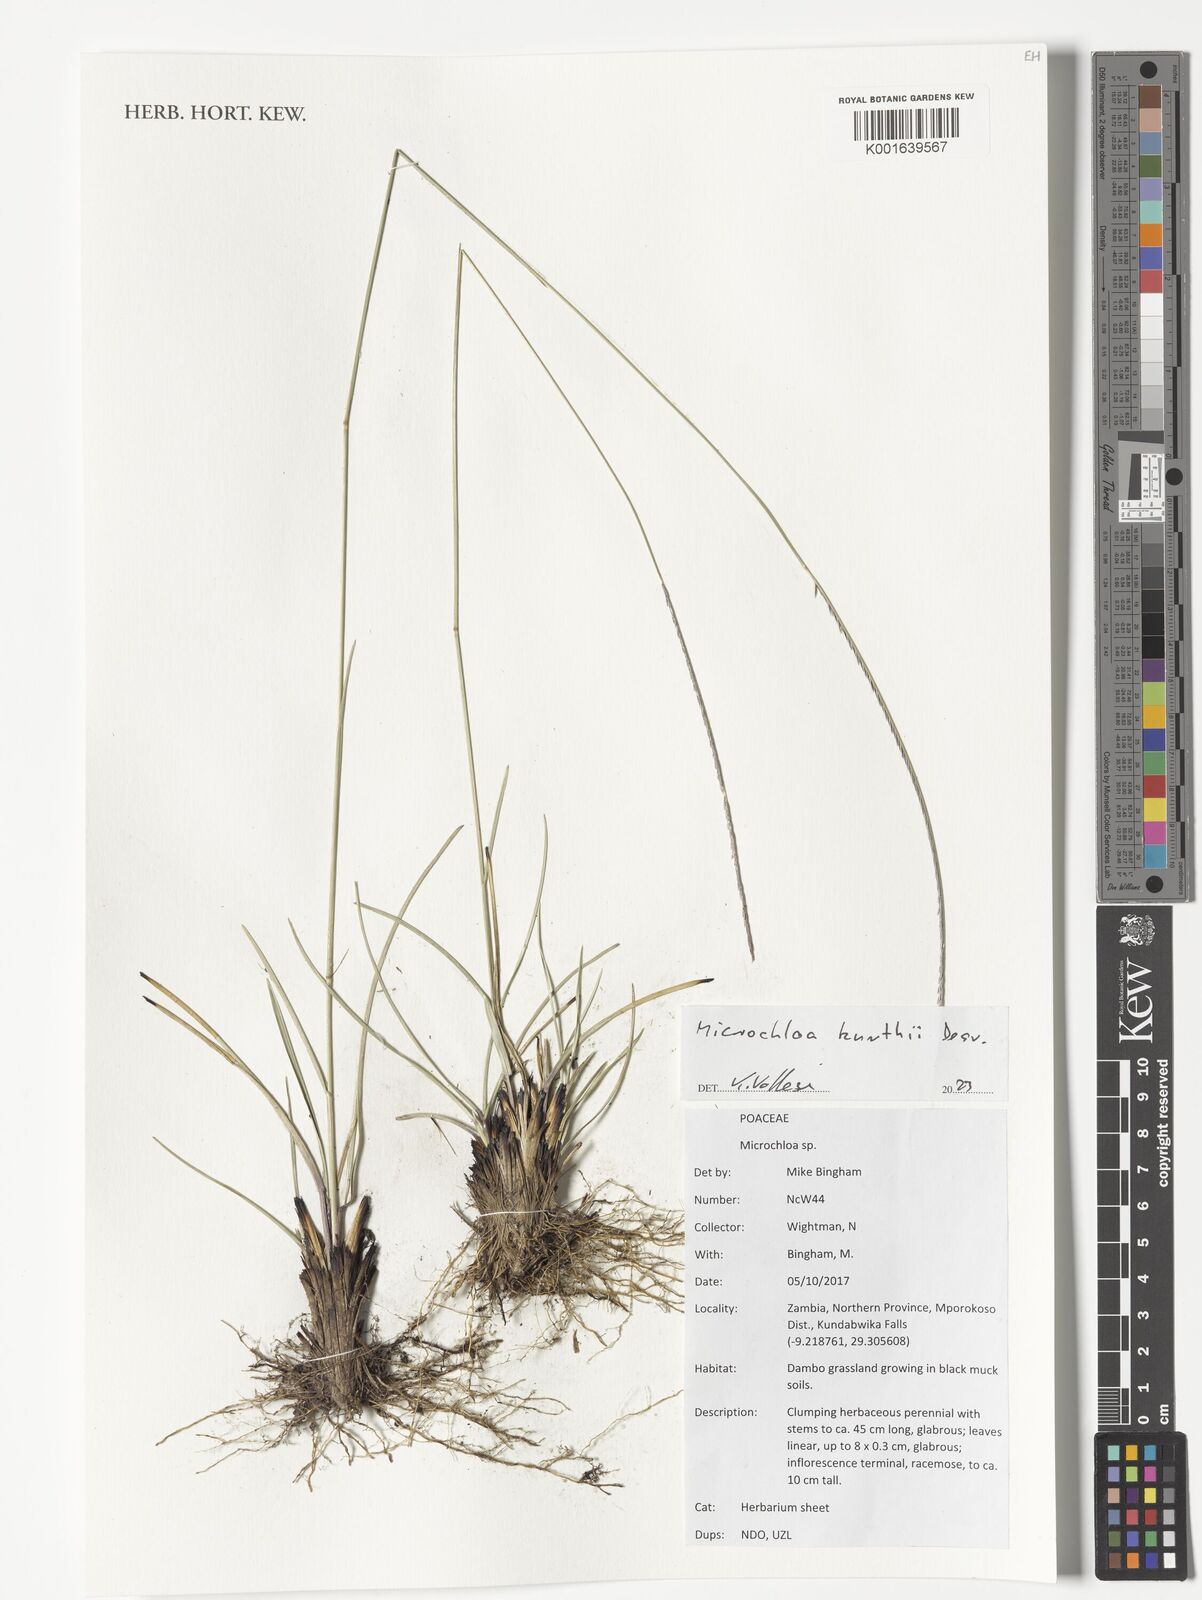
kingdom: Plantae
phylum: Tracheophyta
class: Liliopsida
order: Poales
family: Poaceae
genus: Microchloa
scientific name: Microchloa kunthii
